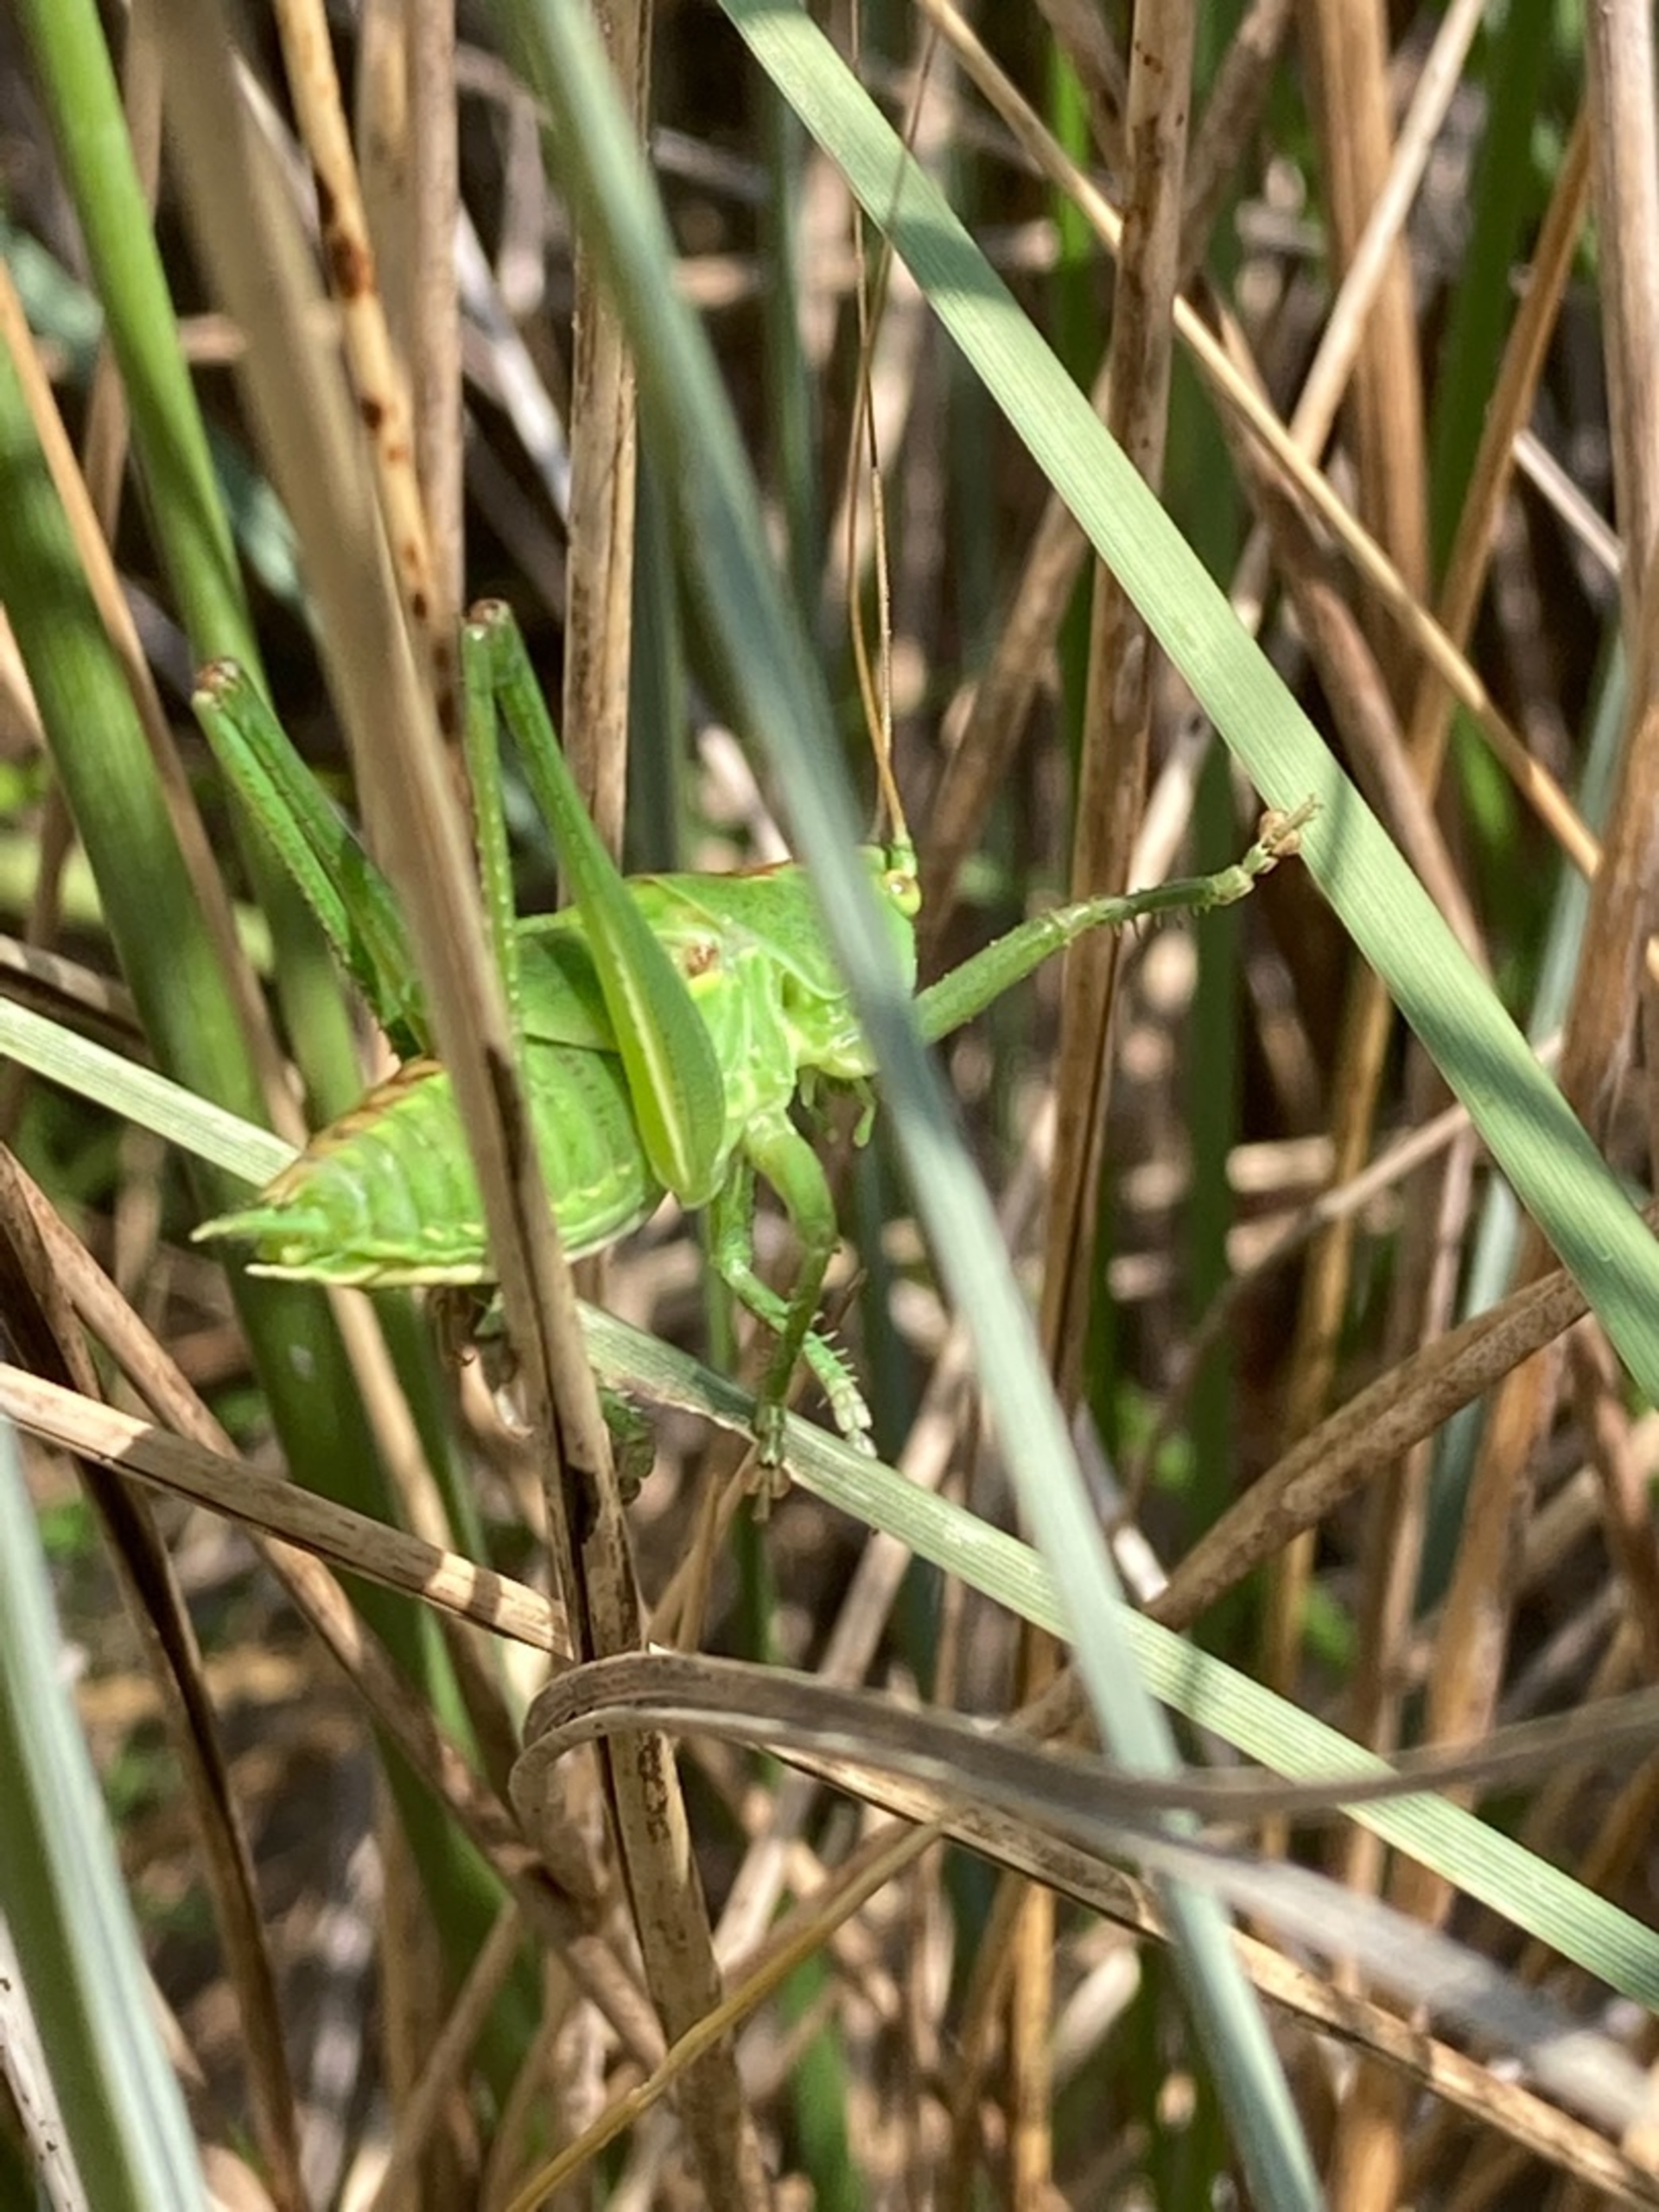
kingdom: Animalia
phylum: Arthropoda
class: Insecta
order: Orthoptera
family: Tettigoniidae
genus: Tettigonia
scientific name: Tettigonia viridissima
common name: Stor grøn løvgræshoppe
